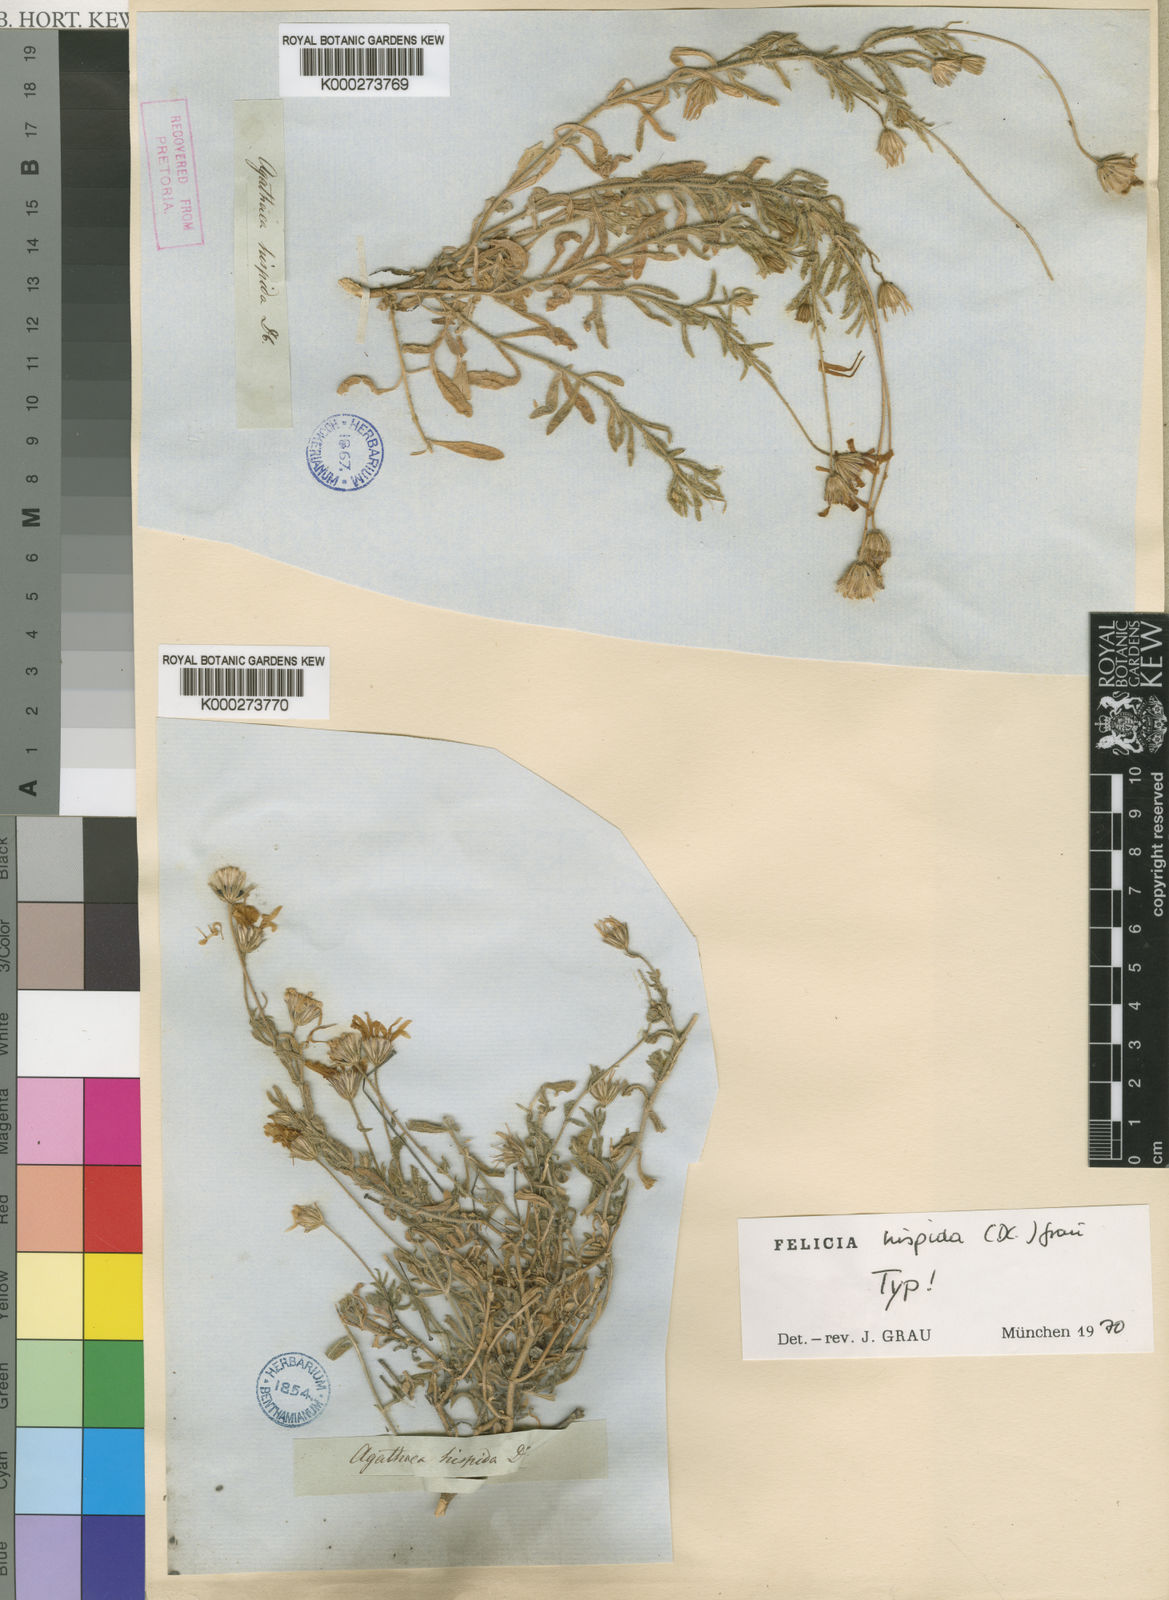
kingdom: Plantae
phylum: Tracheophyta
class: Magnoliopsida
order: Asterales
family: Asteraceae
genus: Felicia
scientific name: Felicia hispida
